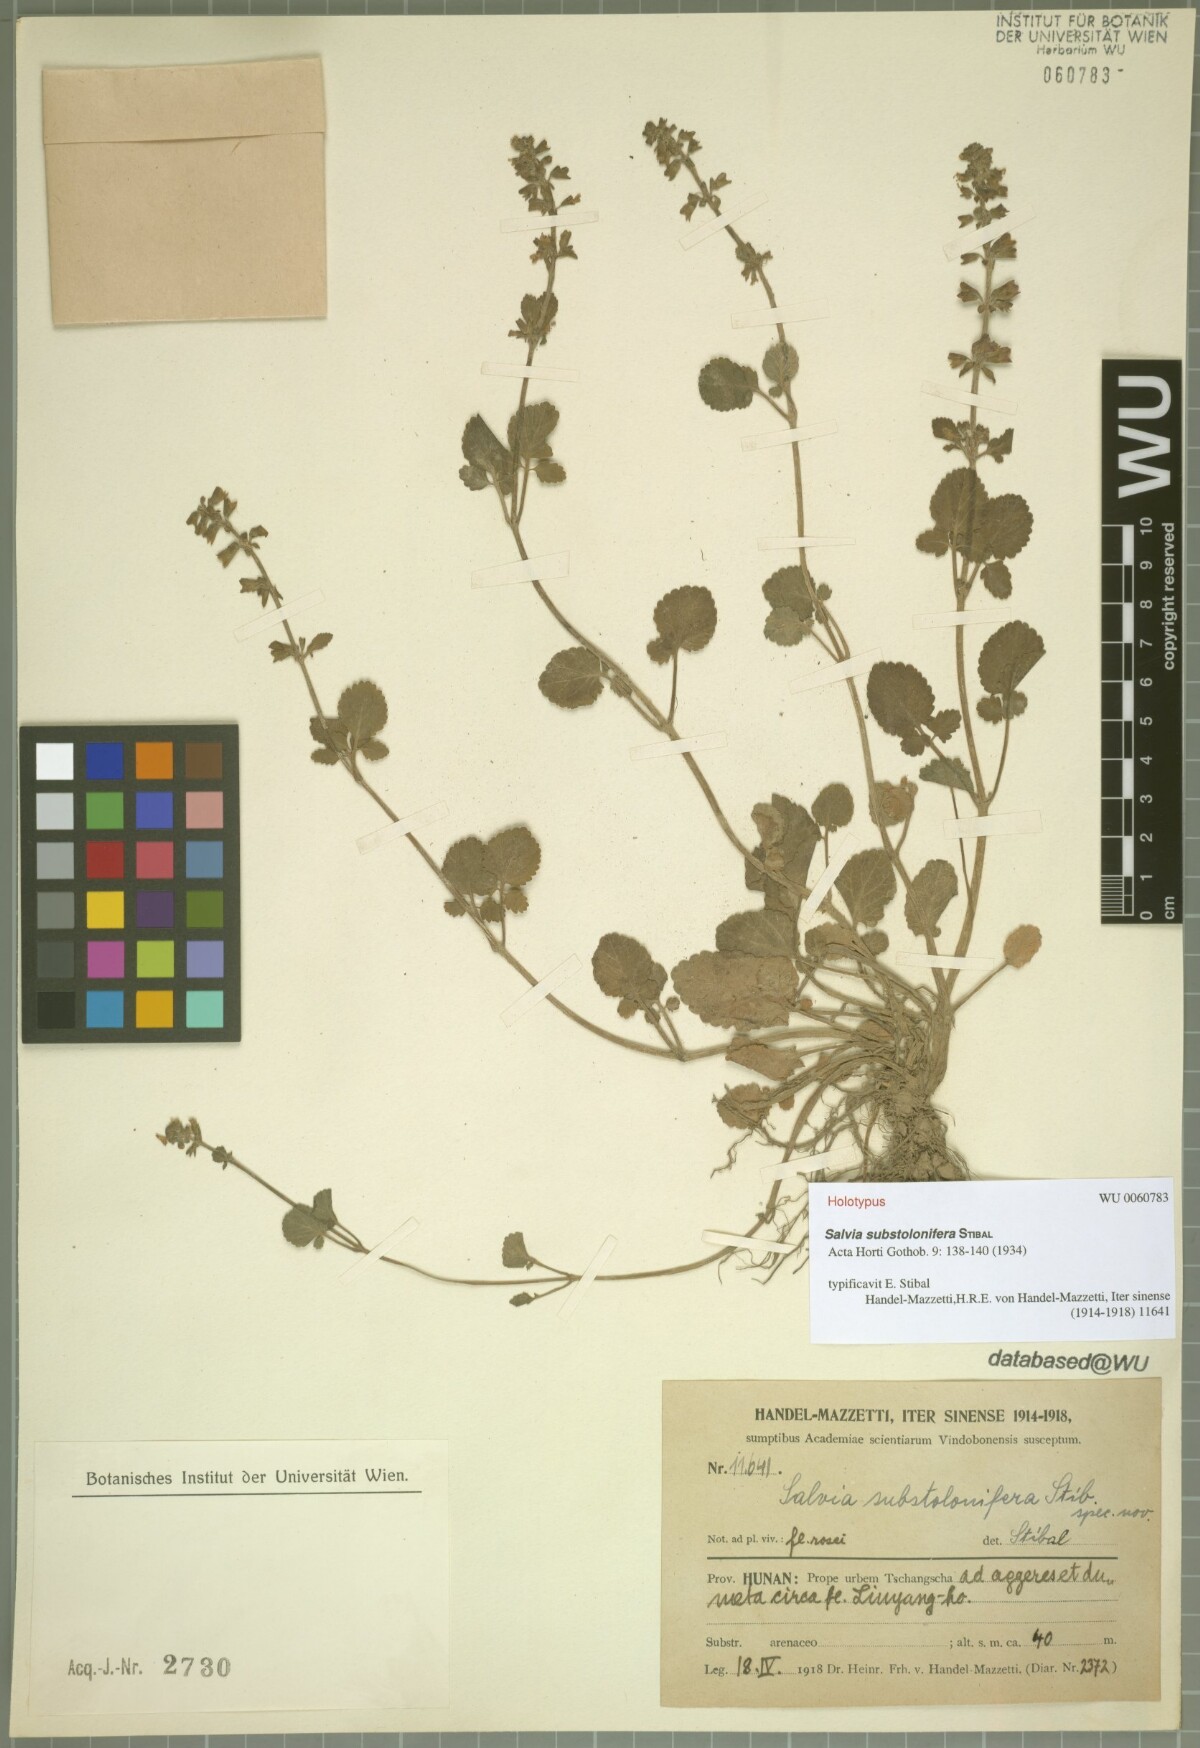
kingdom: Plantae
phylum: Tracheophyta
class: Magnoliopsida
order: Lamiales
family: Lamiaceae
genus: Salvia
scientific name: Salvia substolonifera
